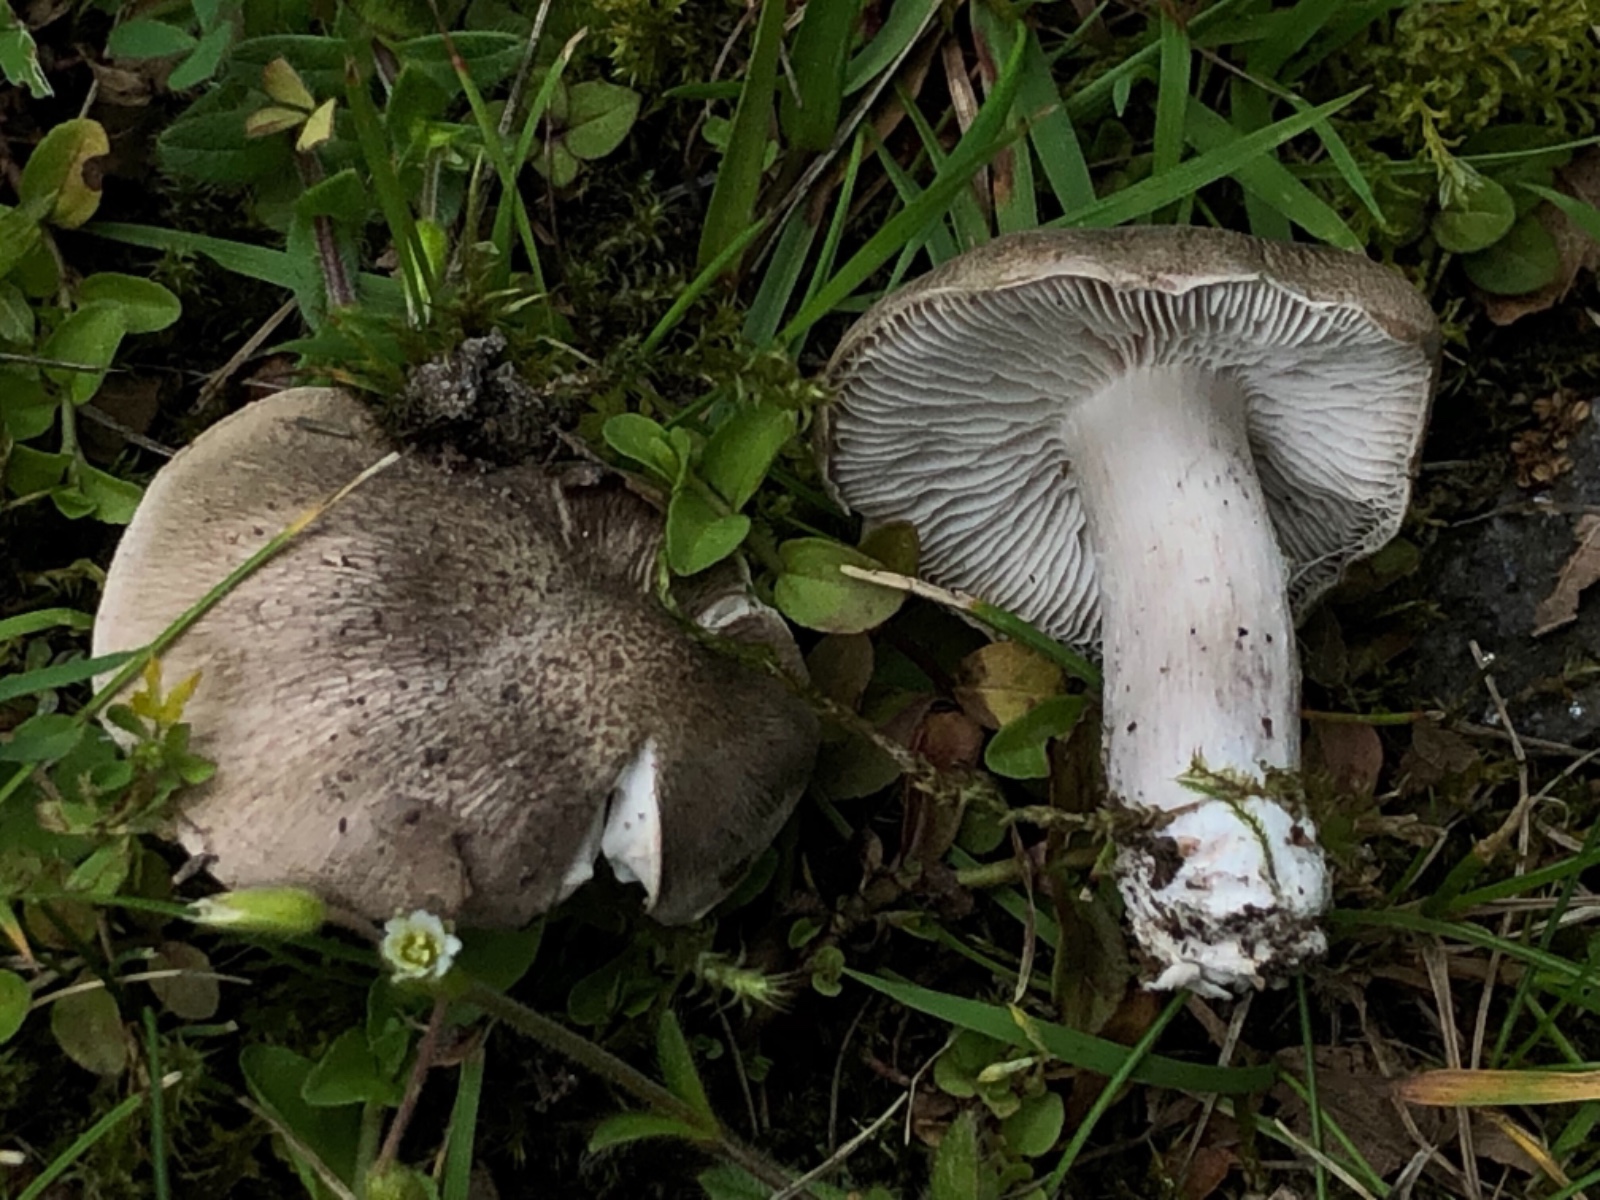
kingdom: Fungi
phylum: Basidiomycota
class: Agaricomycetes
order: Agaricales
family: Tricholomataceae
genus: Tricholoma
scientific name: Tricholoma terreum
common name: jordfarvet ridderhat
